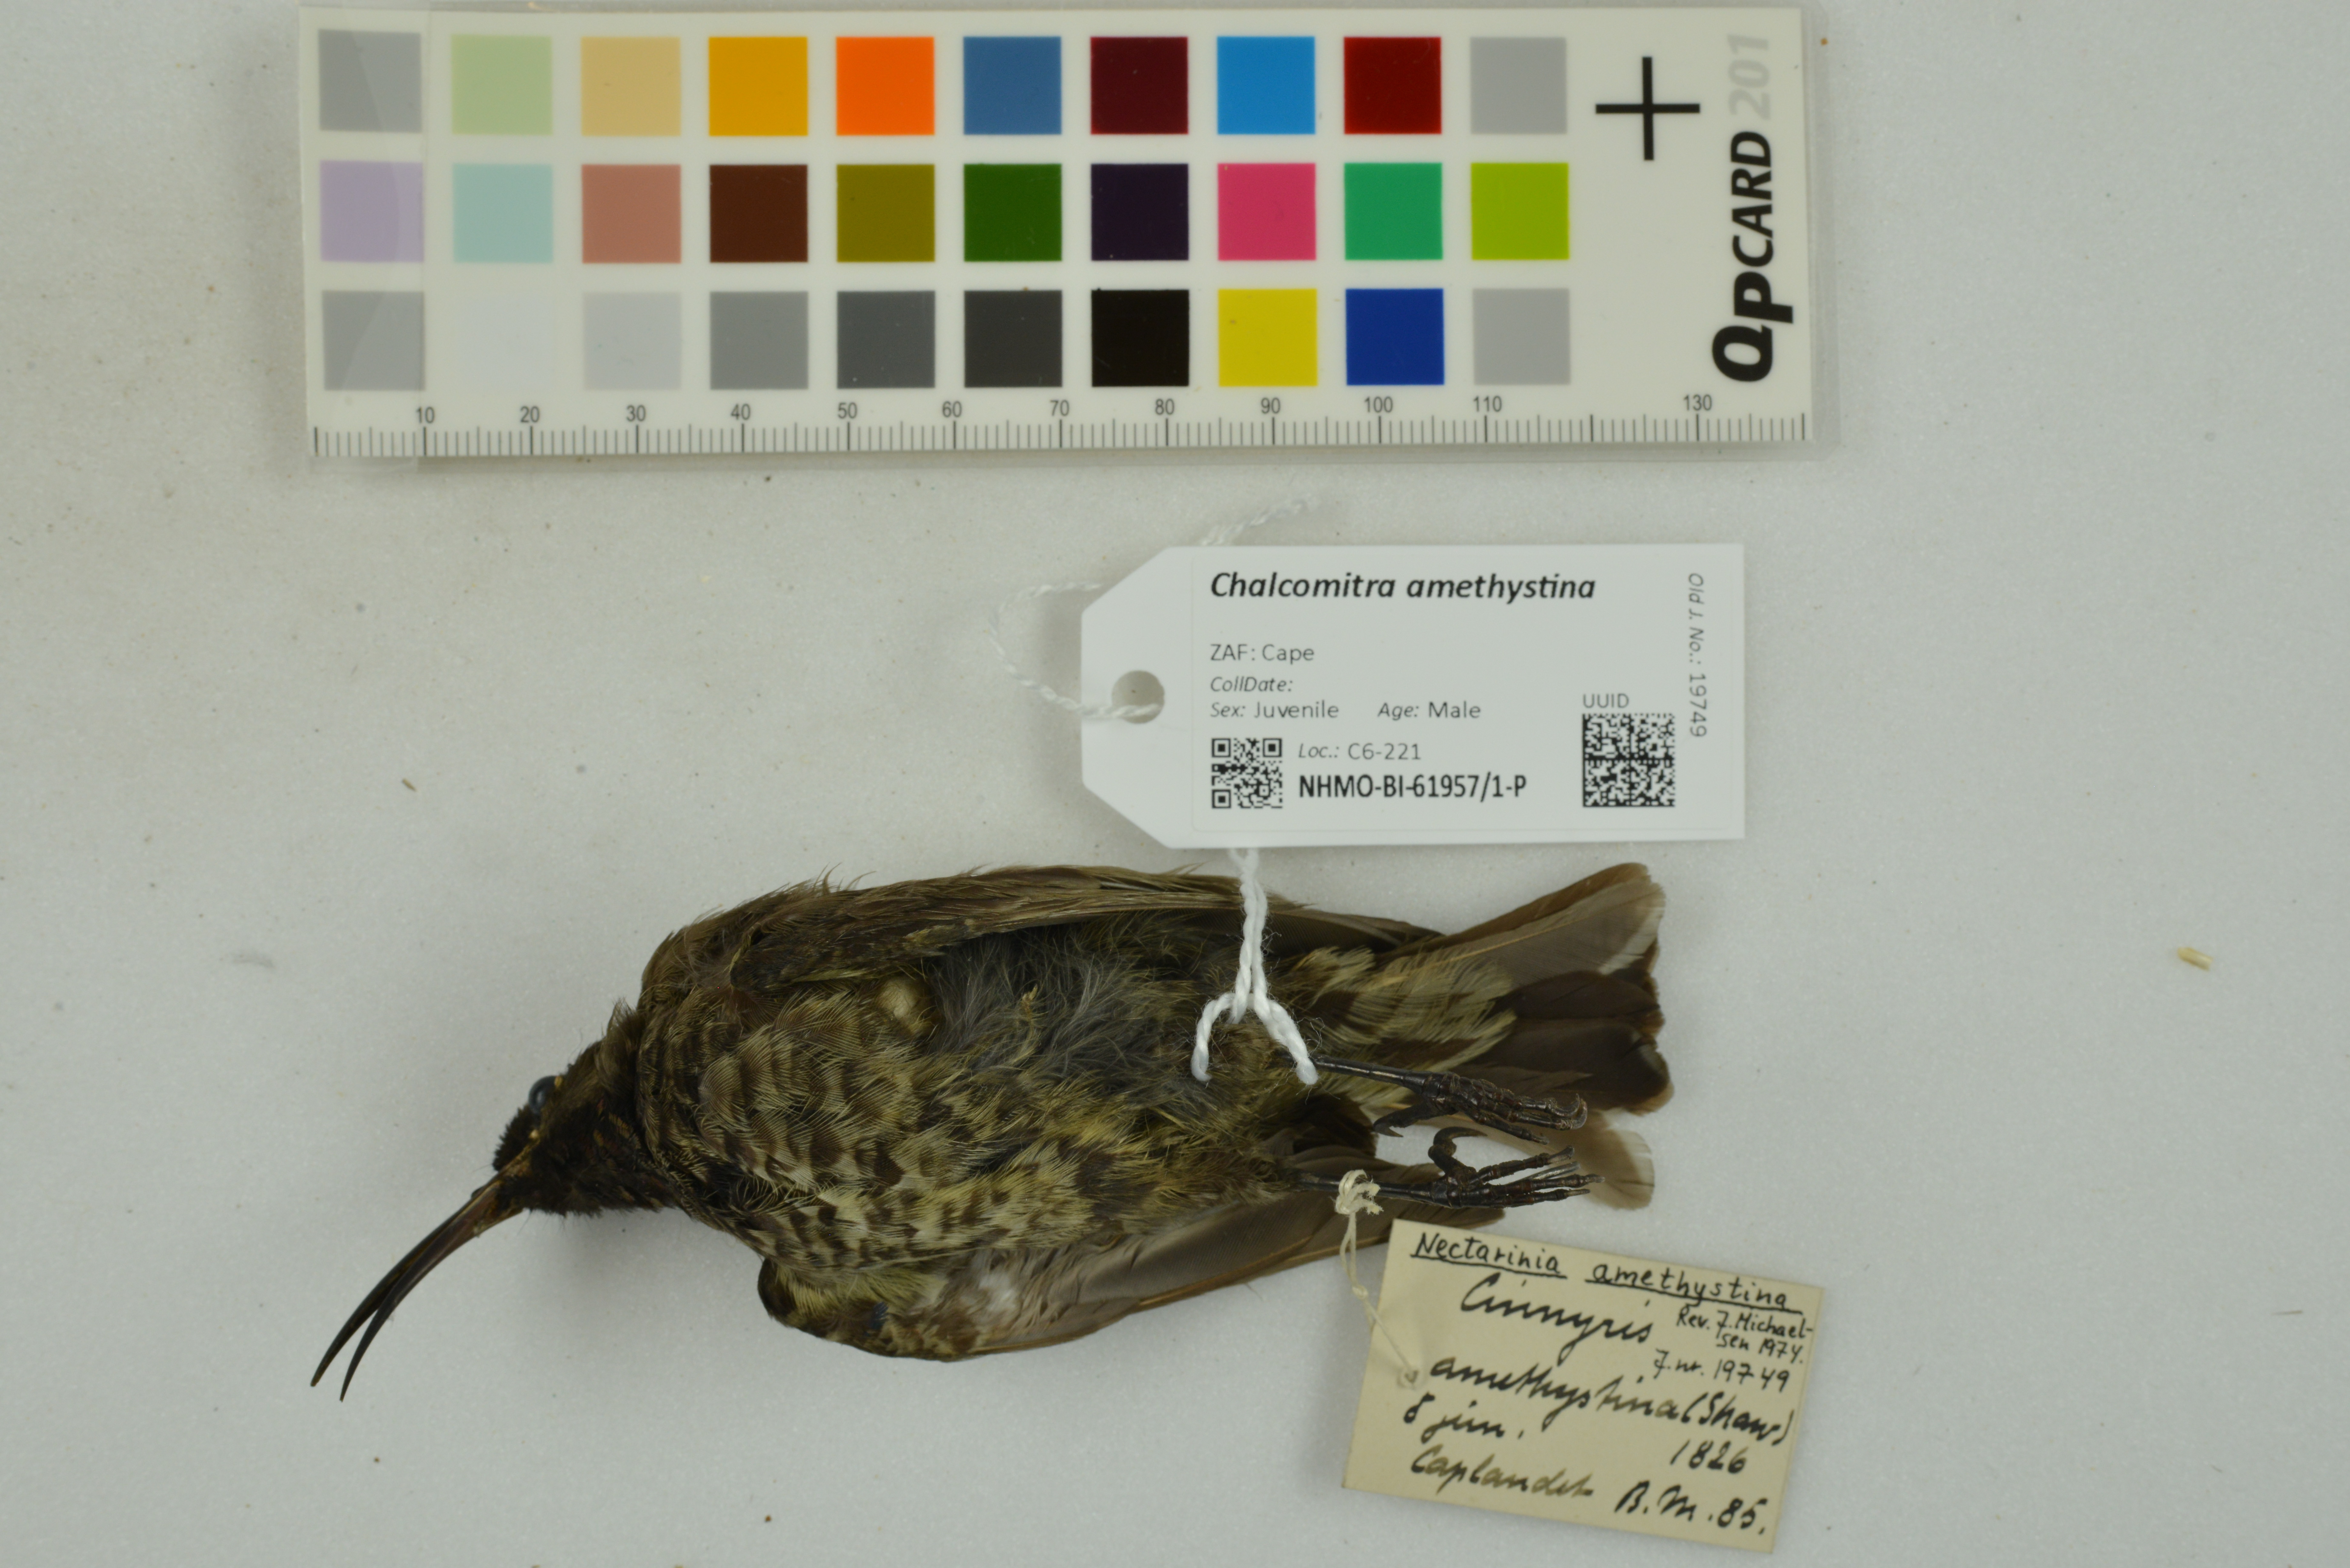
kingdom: Animalia
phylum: Chordata
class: Aves
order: Passeriformes
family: Nectariniidae
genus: Chalcomitra
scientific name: Chalcomitra amethystina
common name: Amethyst sunbird
